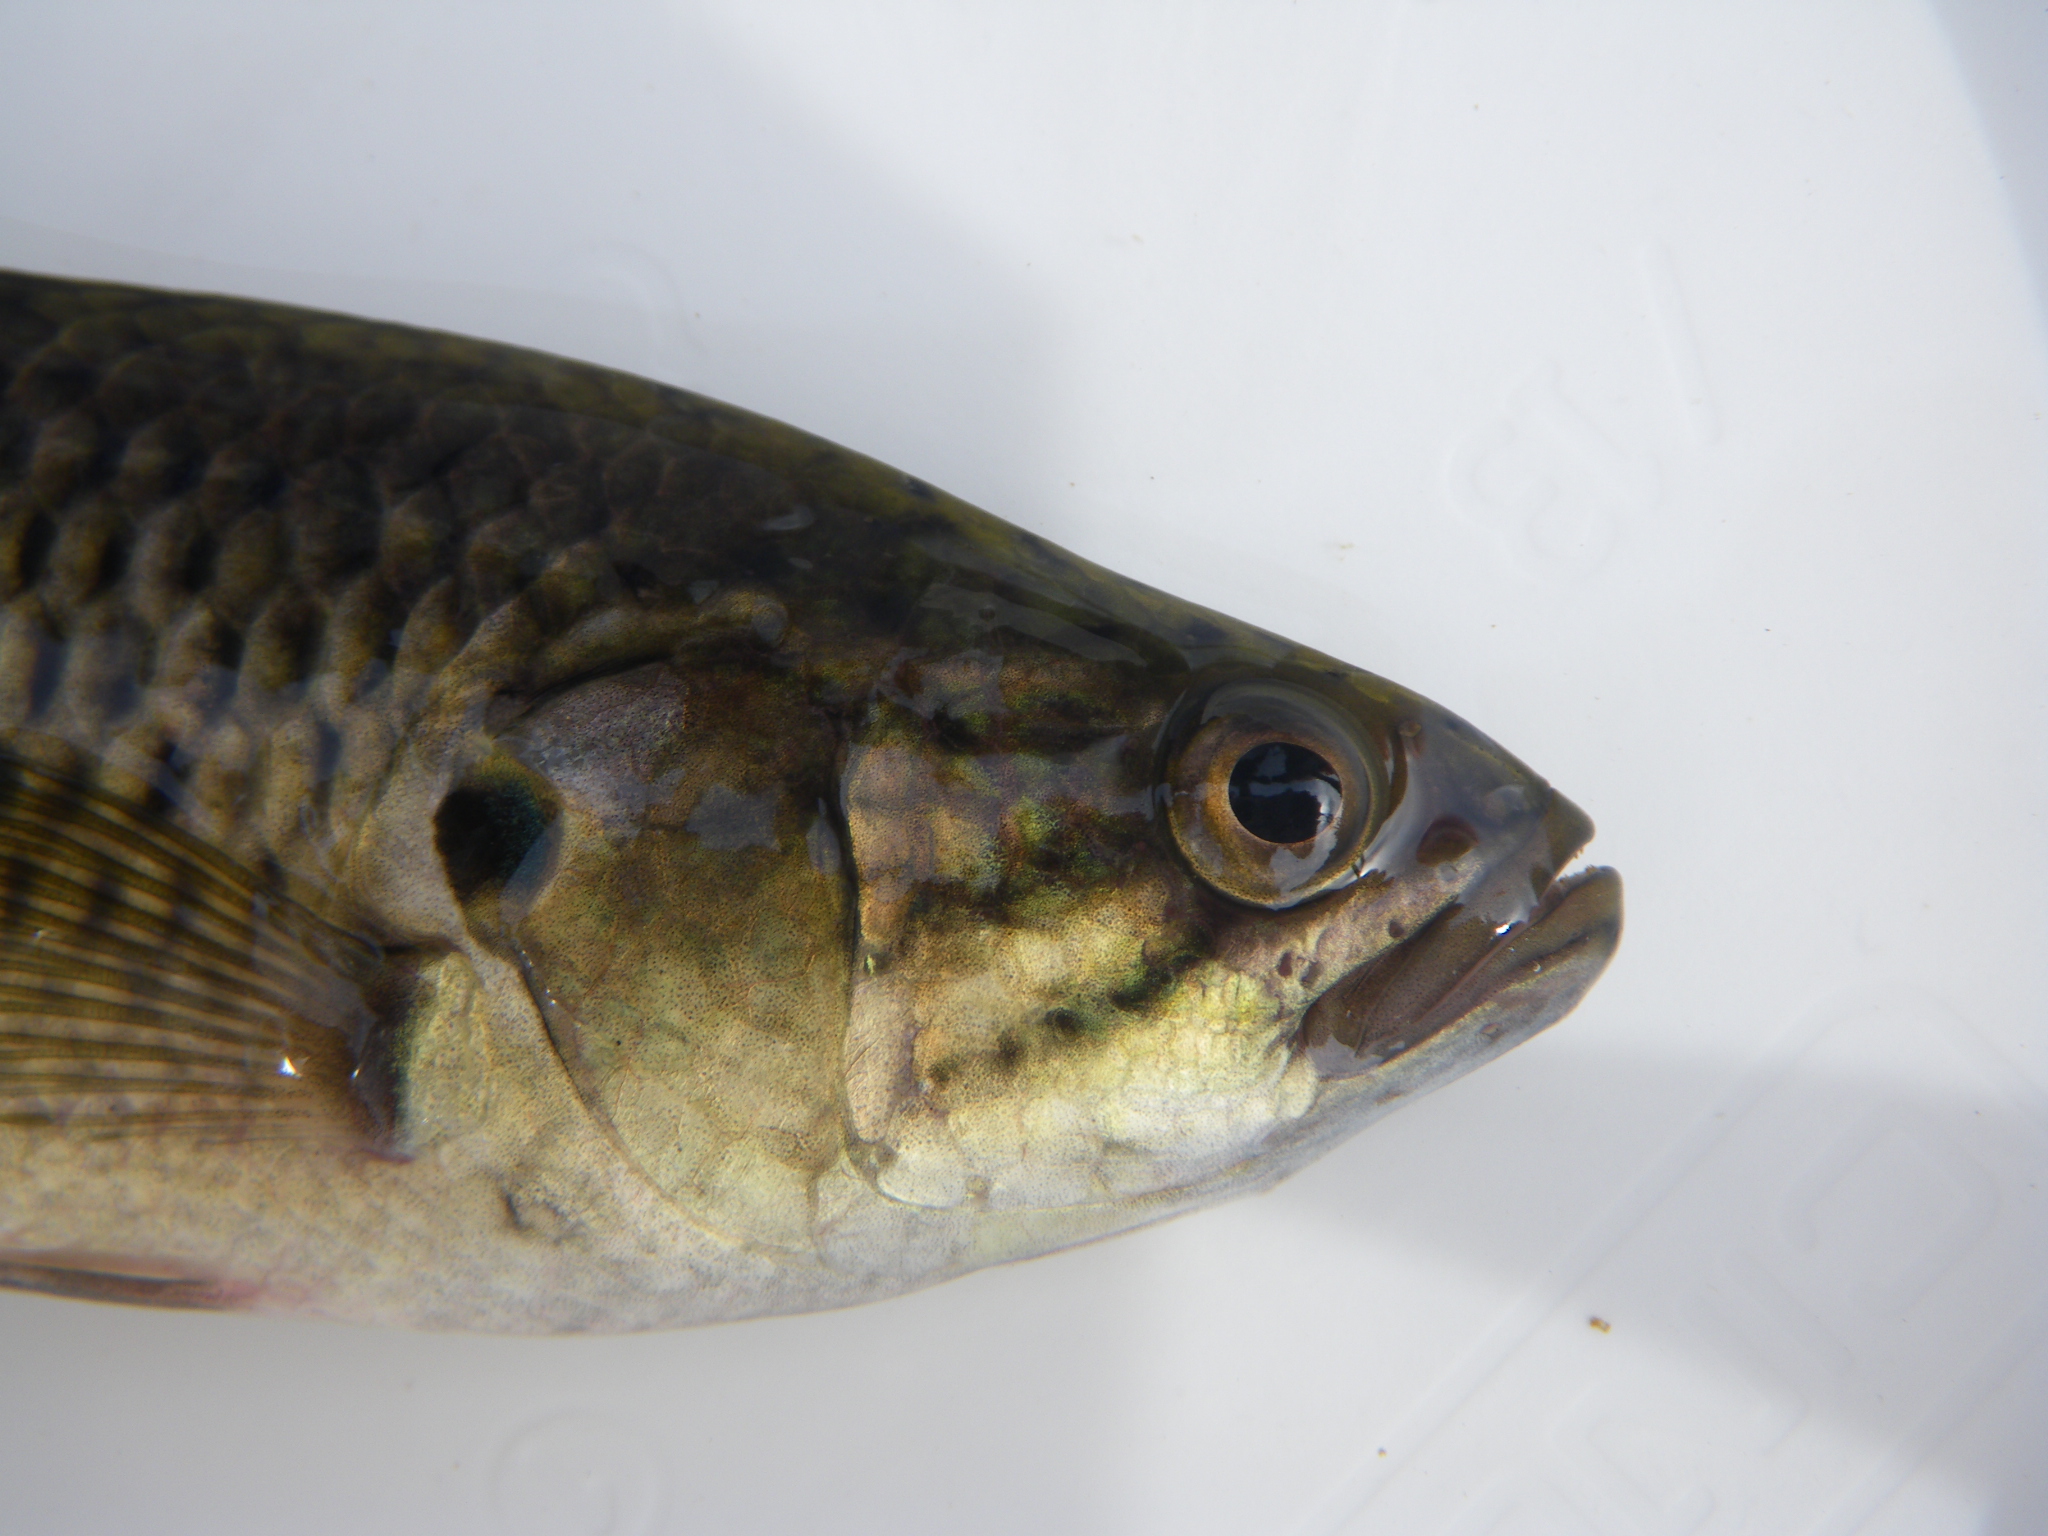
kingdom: Animalia
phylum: Chordata
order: Perciformes
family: Anabantidae
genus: Sandelia
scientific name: Sandelia capensis
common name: Cape kurper
